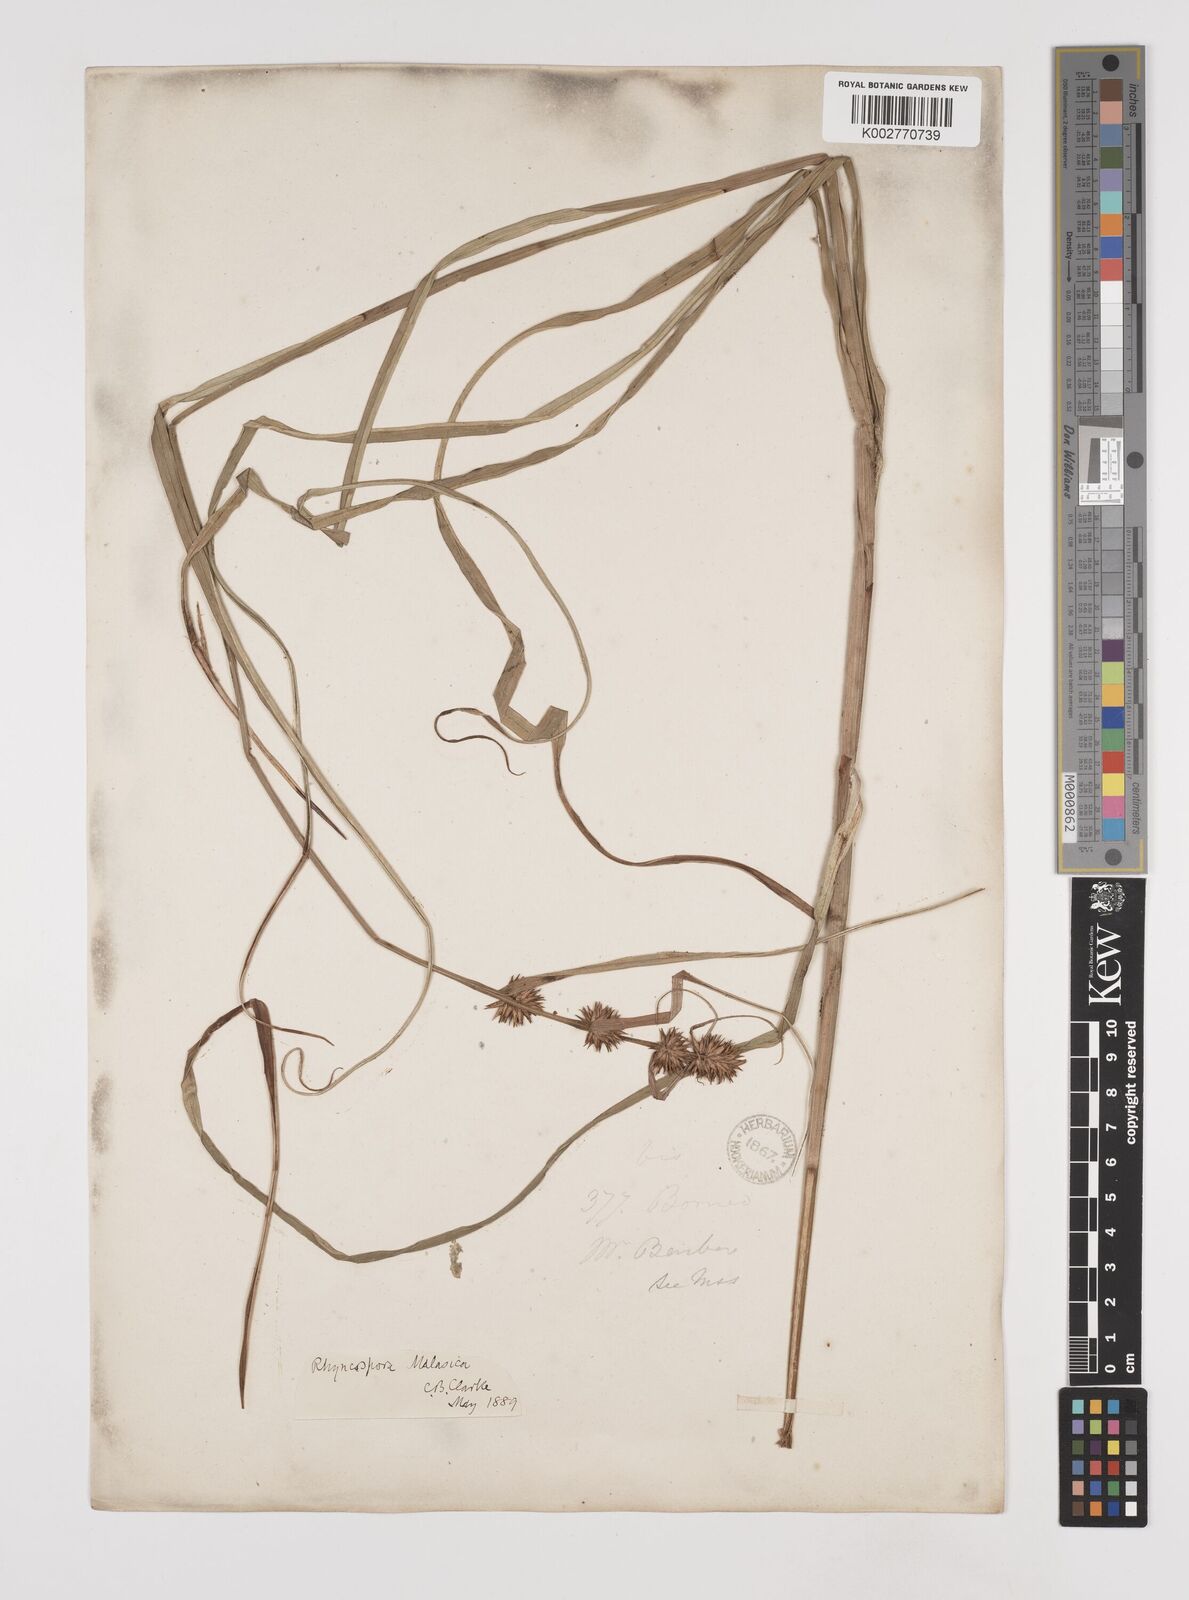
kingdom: Plantae
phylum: Tracheophyta
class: Liliopsida
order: Poales
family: Cyperaceae
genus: Rhynchospora
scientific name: Rhynchospora malasica
